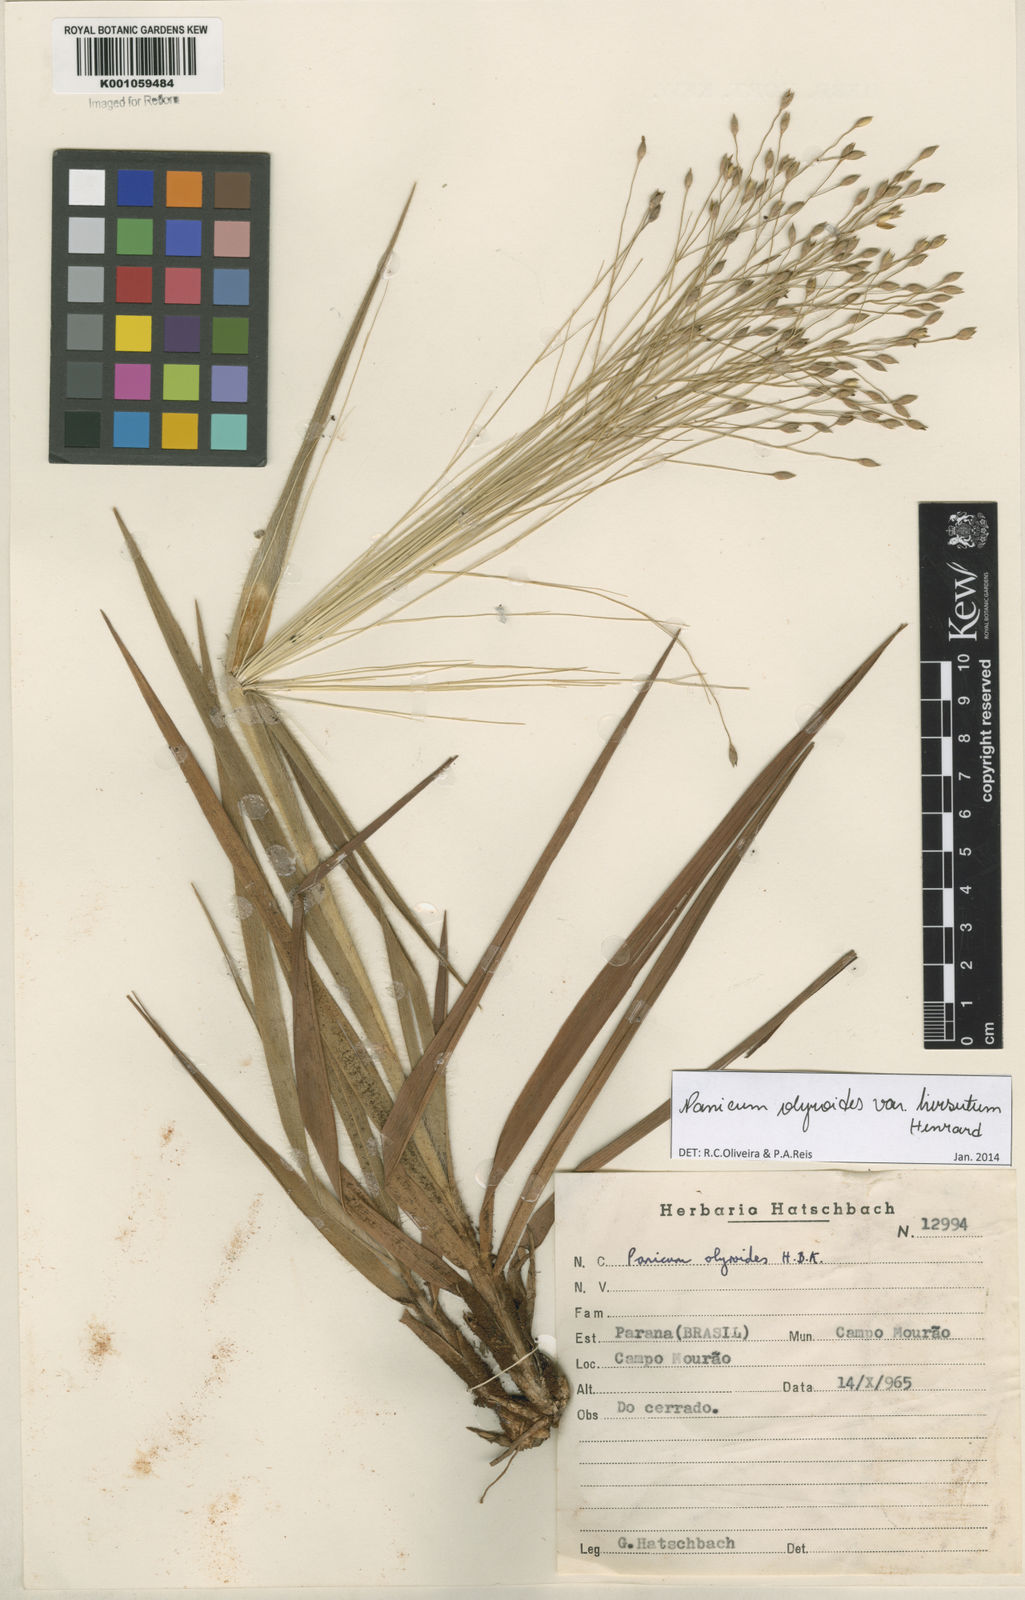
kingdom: Plantae
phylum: Tracheophyta
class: Liliopsida
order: Poales
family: Poaceae
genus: Panicum
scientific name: Panicum olyroides
